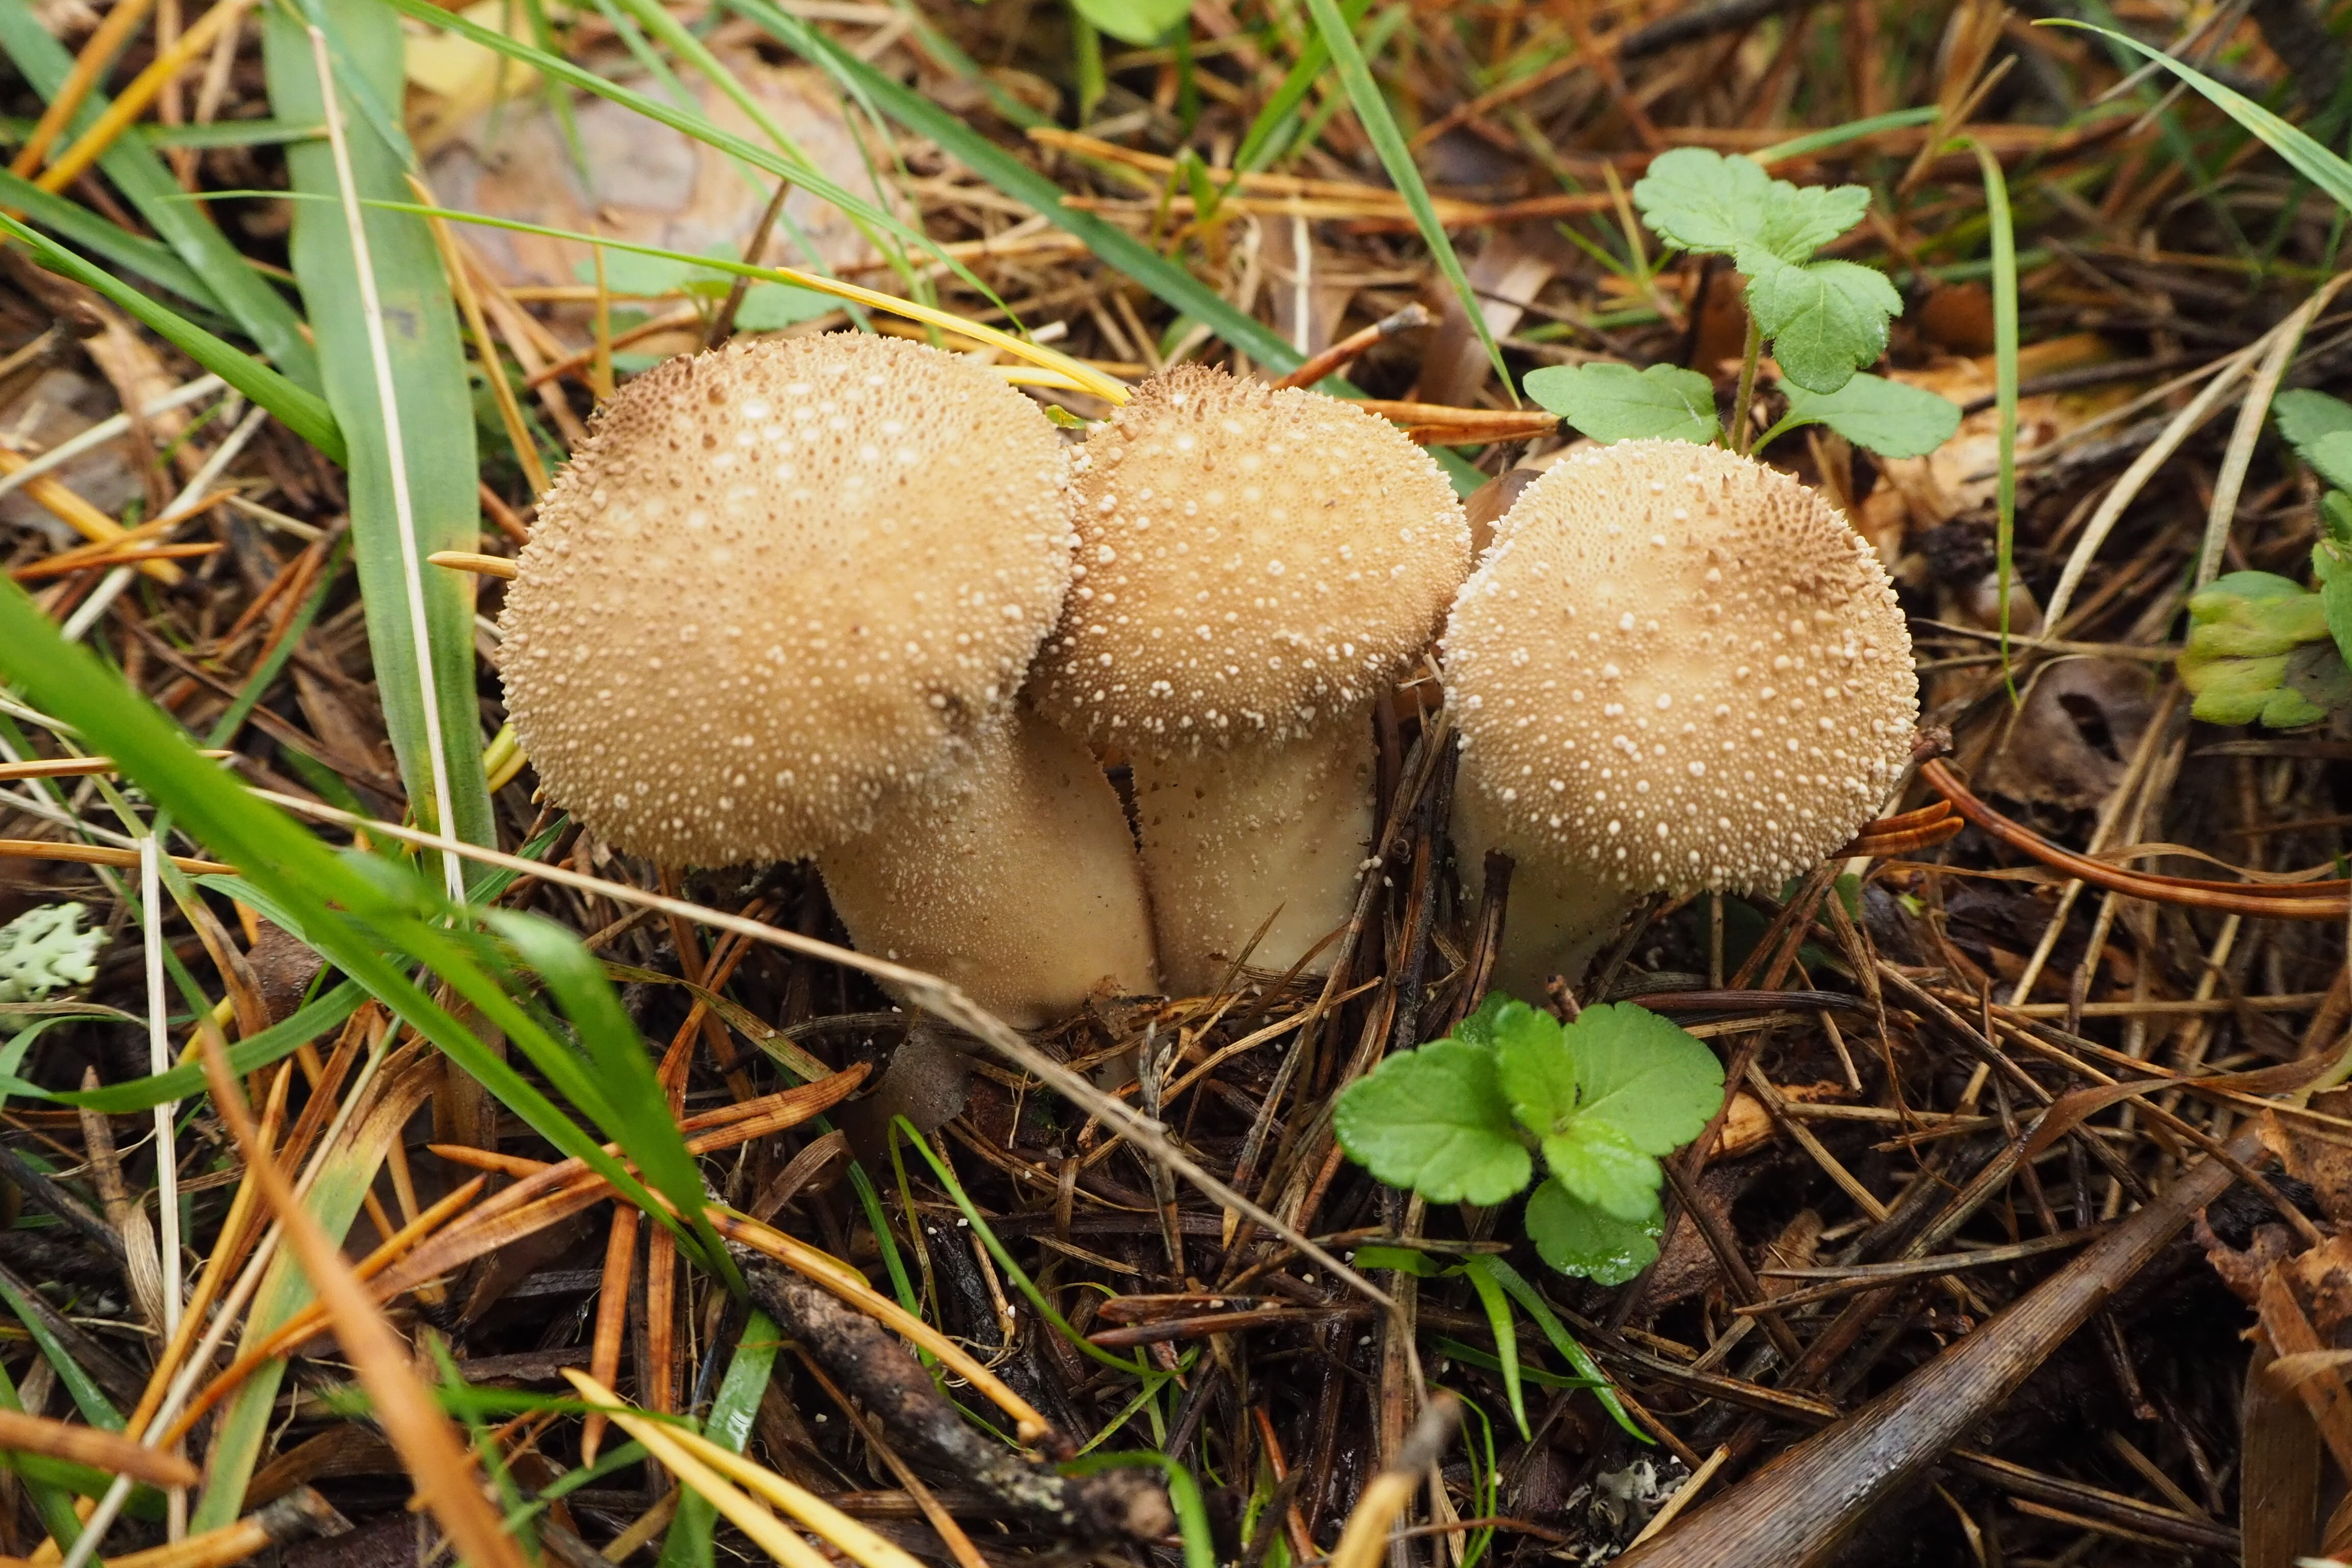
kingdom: Fungi
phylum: Basidiomycota
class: Agaricomycetes
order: Agaricales
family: Lycoperdaceae
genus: Lycoperdon
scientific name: Lycoperdon perlatum
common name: Common puffball
